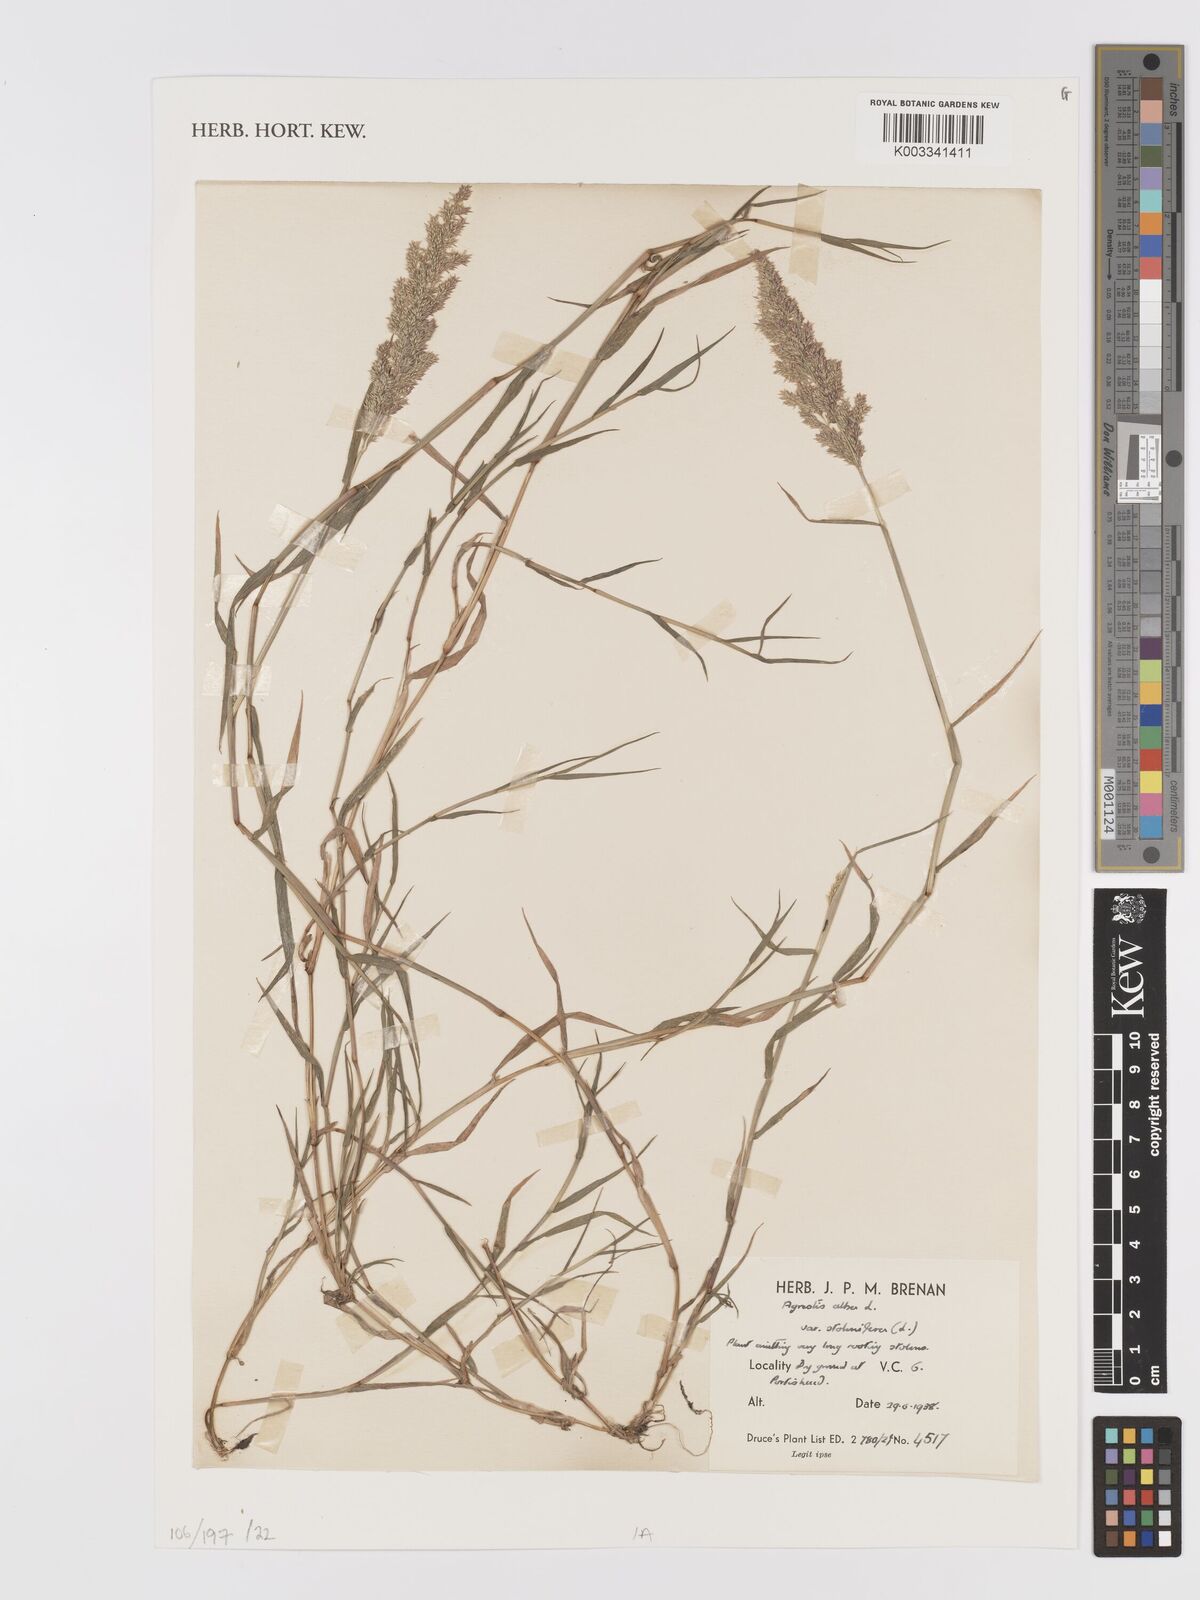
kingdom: Plantae
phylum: Tracheophyta
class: Liliopsida
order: Poales
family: Poaceae
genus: Agrostis
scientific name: Agrostis stolonifera
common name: Creeping bentgrass
